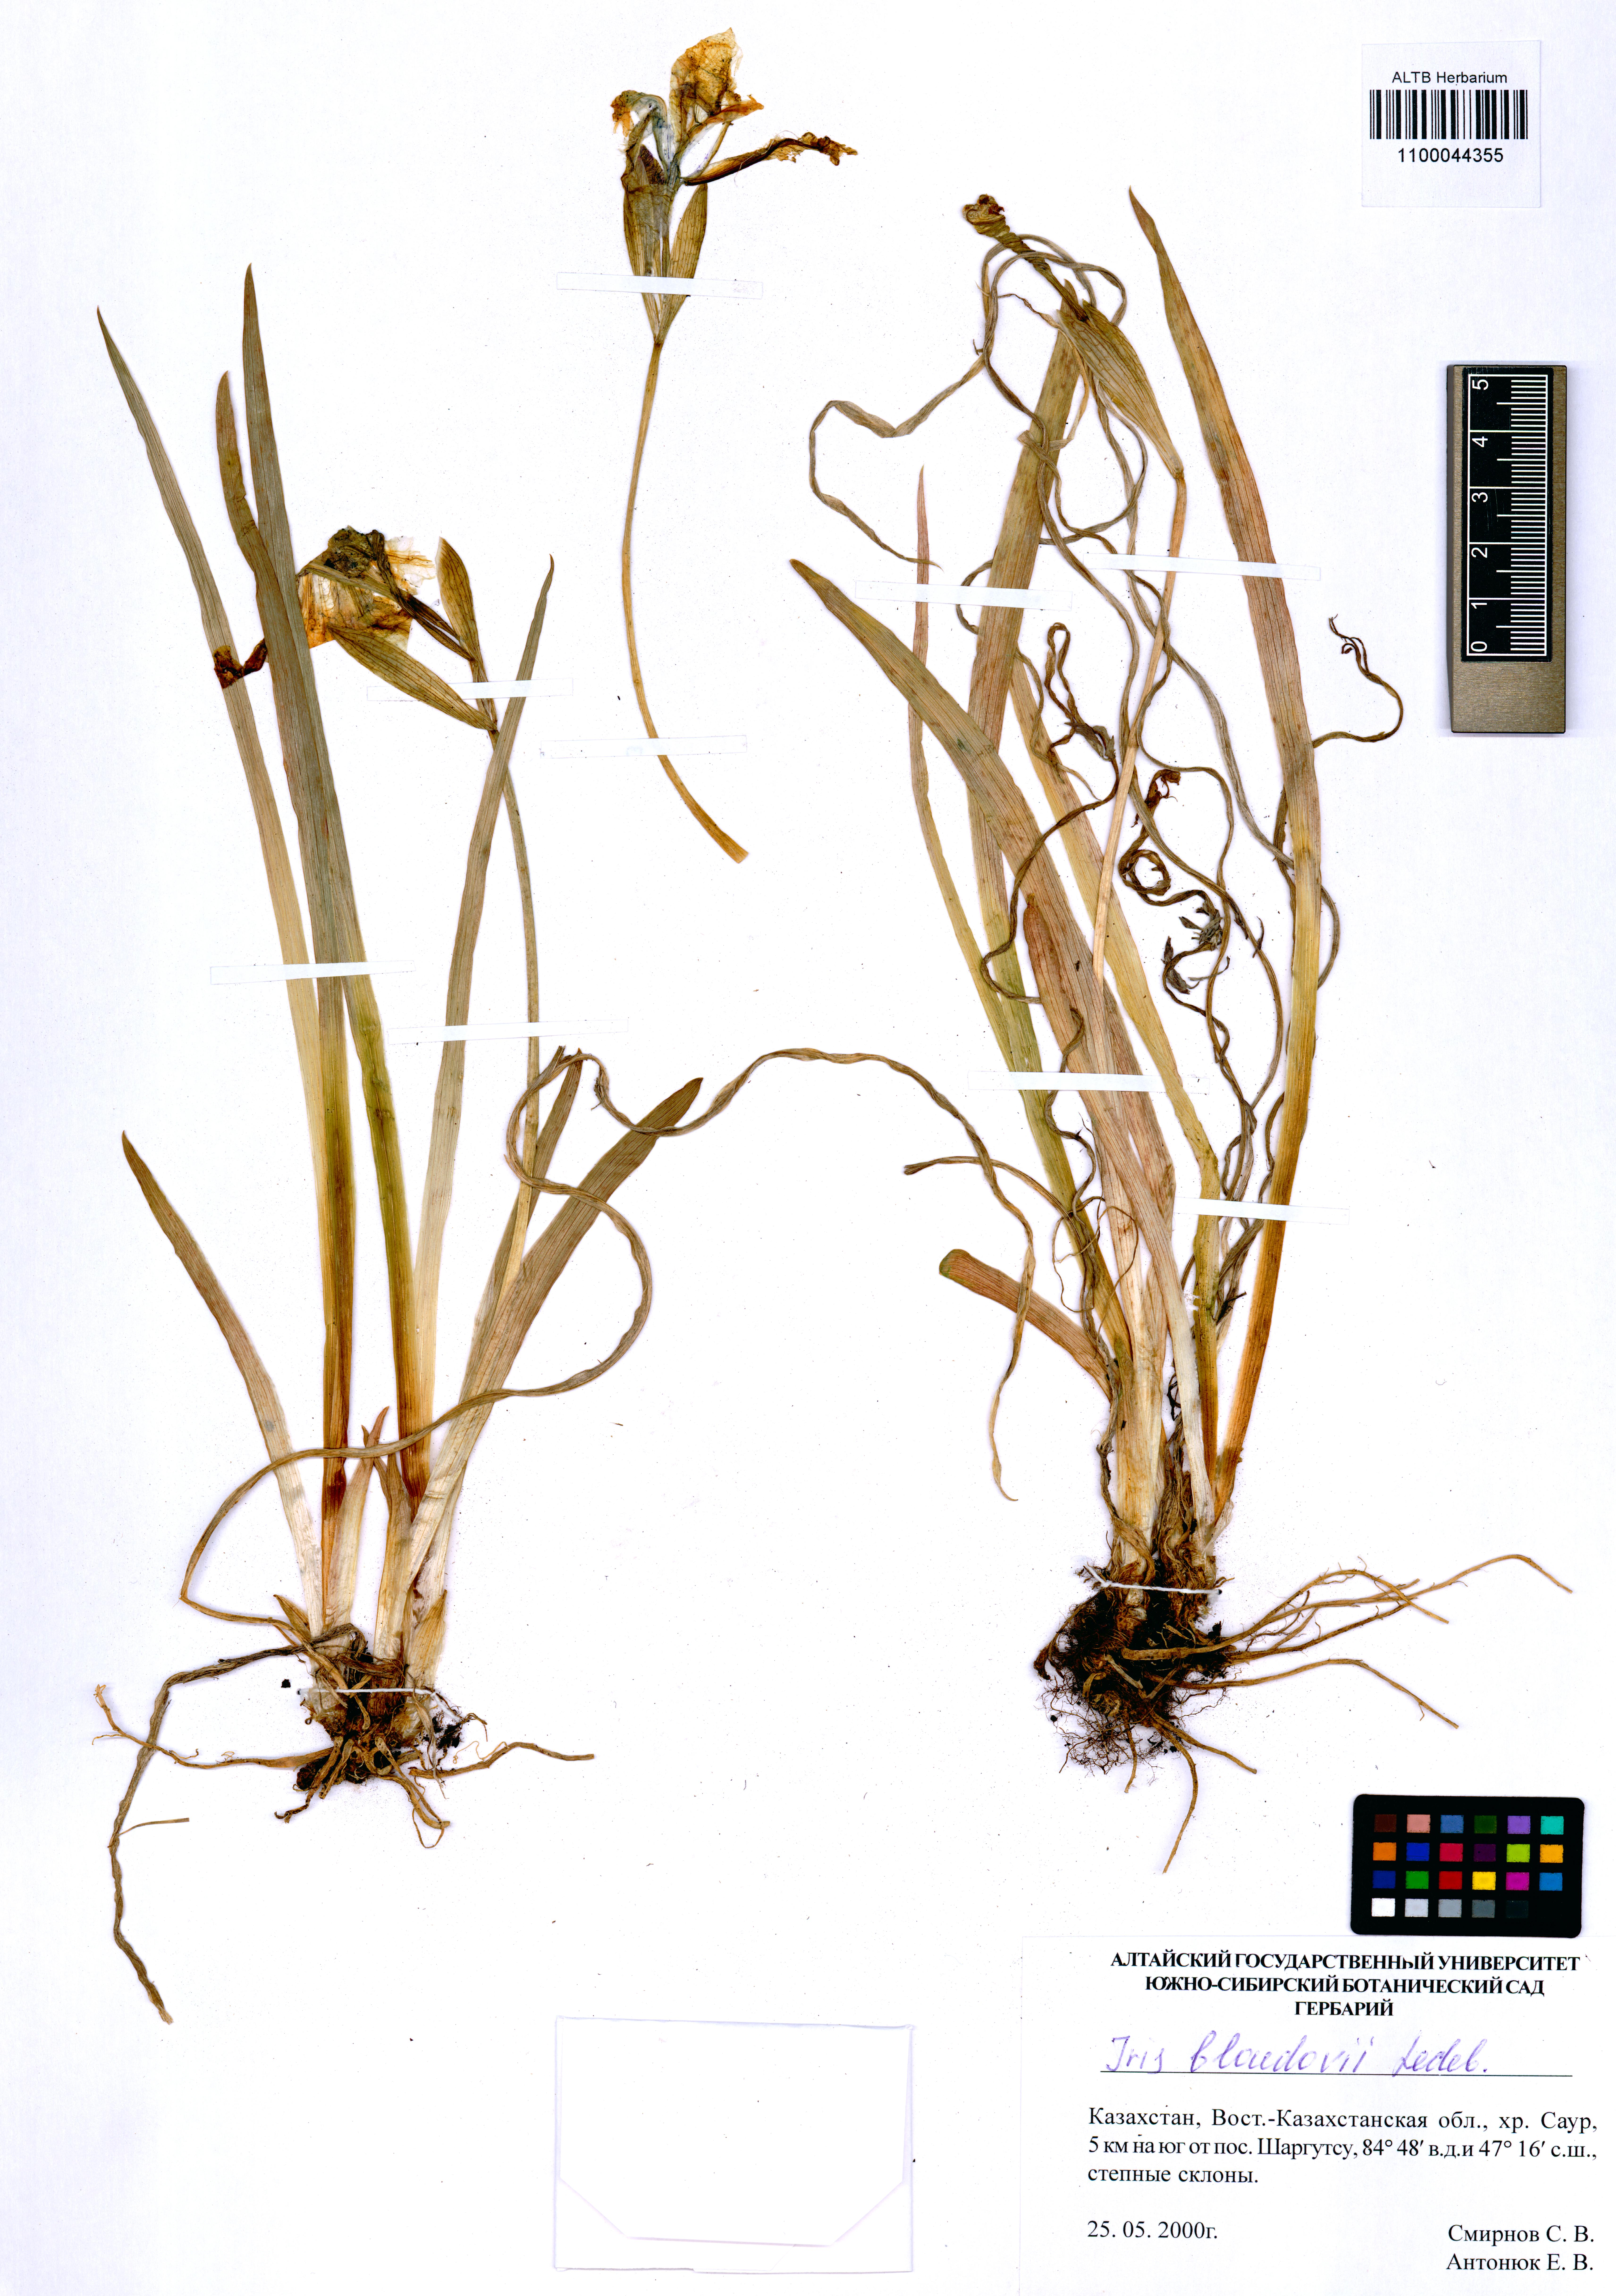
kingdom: Plantae
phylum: Tracheophyta
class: Liliopsida
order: Asparagales
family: Iridaceae
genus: Iris
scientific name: Iris bloudowii
